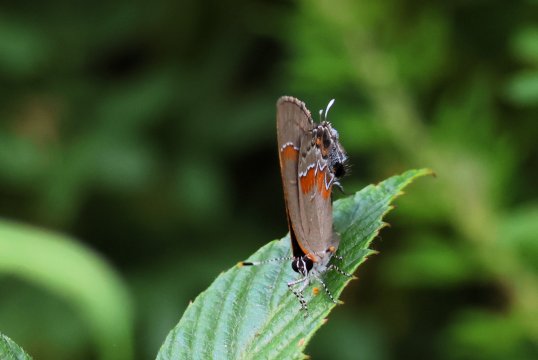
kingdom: Animalia
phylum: Arthropoda
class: Insecta
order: Lepidoptera
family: Lycaenidae
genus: Calycopis
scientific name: Calycopis cecrops
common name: Red-banded Hairstreak
